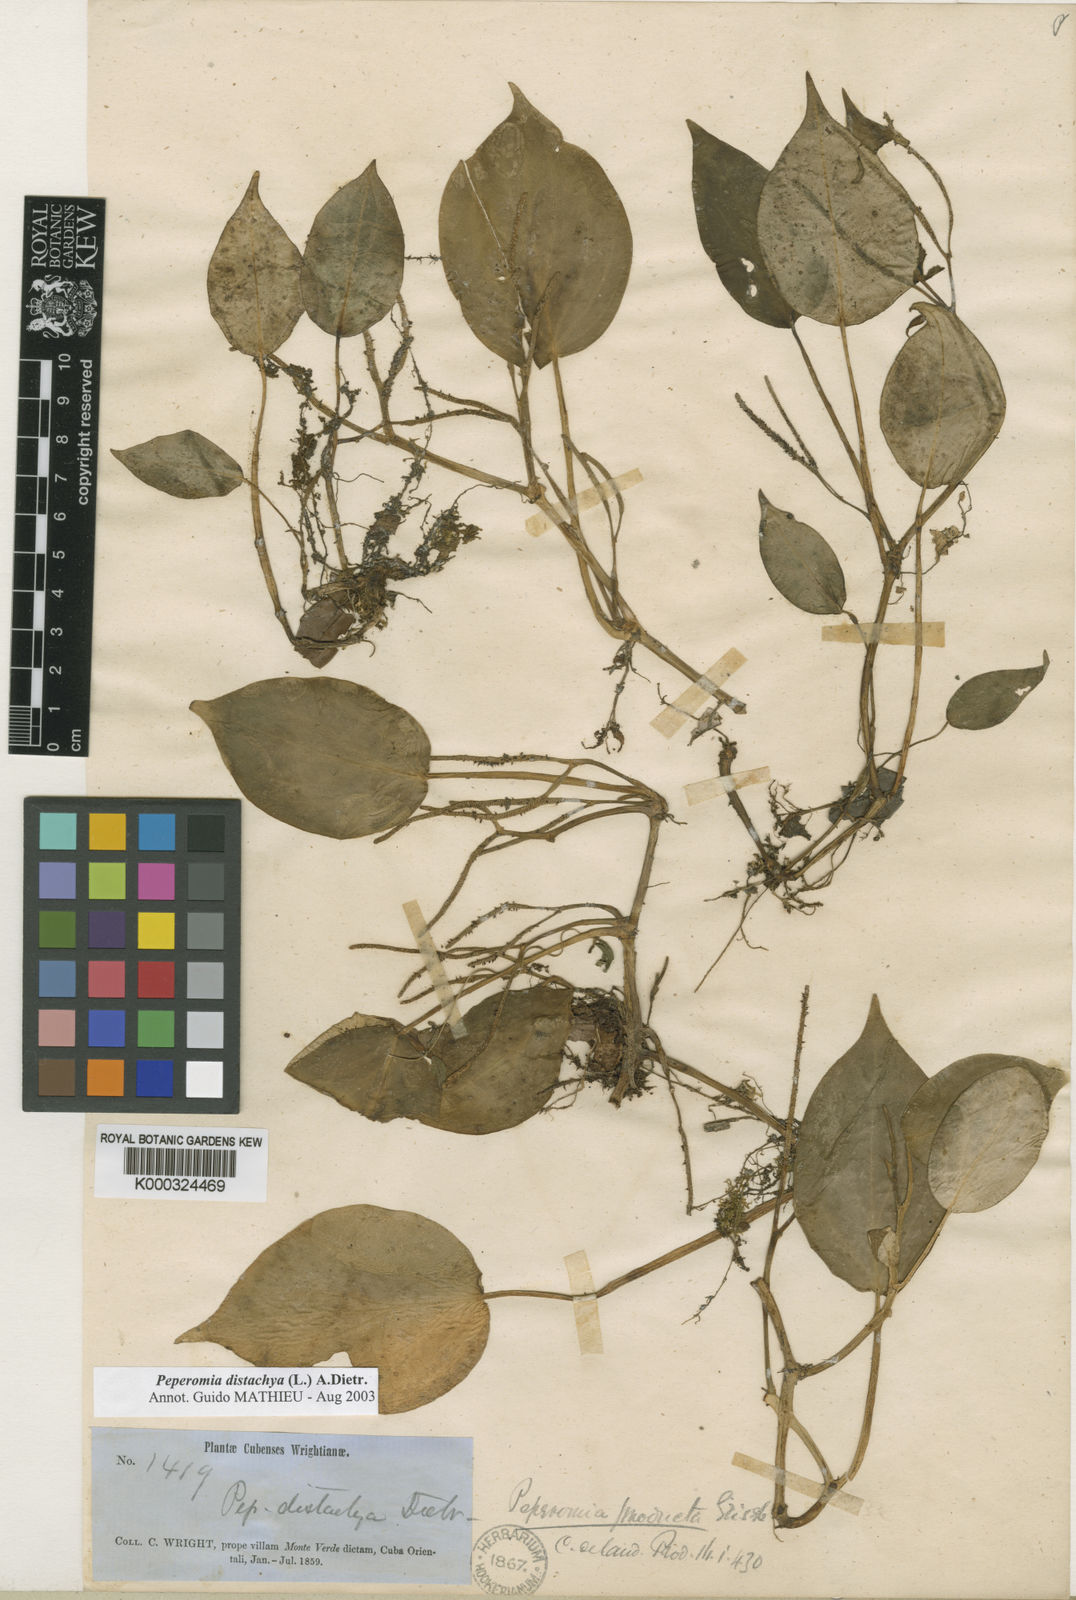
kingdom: Plantae
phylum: Tracheophyta
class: Magnoliopsida
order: Piperales
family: Piperaceae
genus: Peperomia
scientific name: Peperomia distachyos
